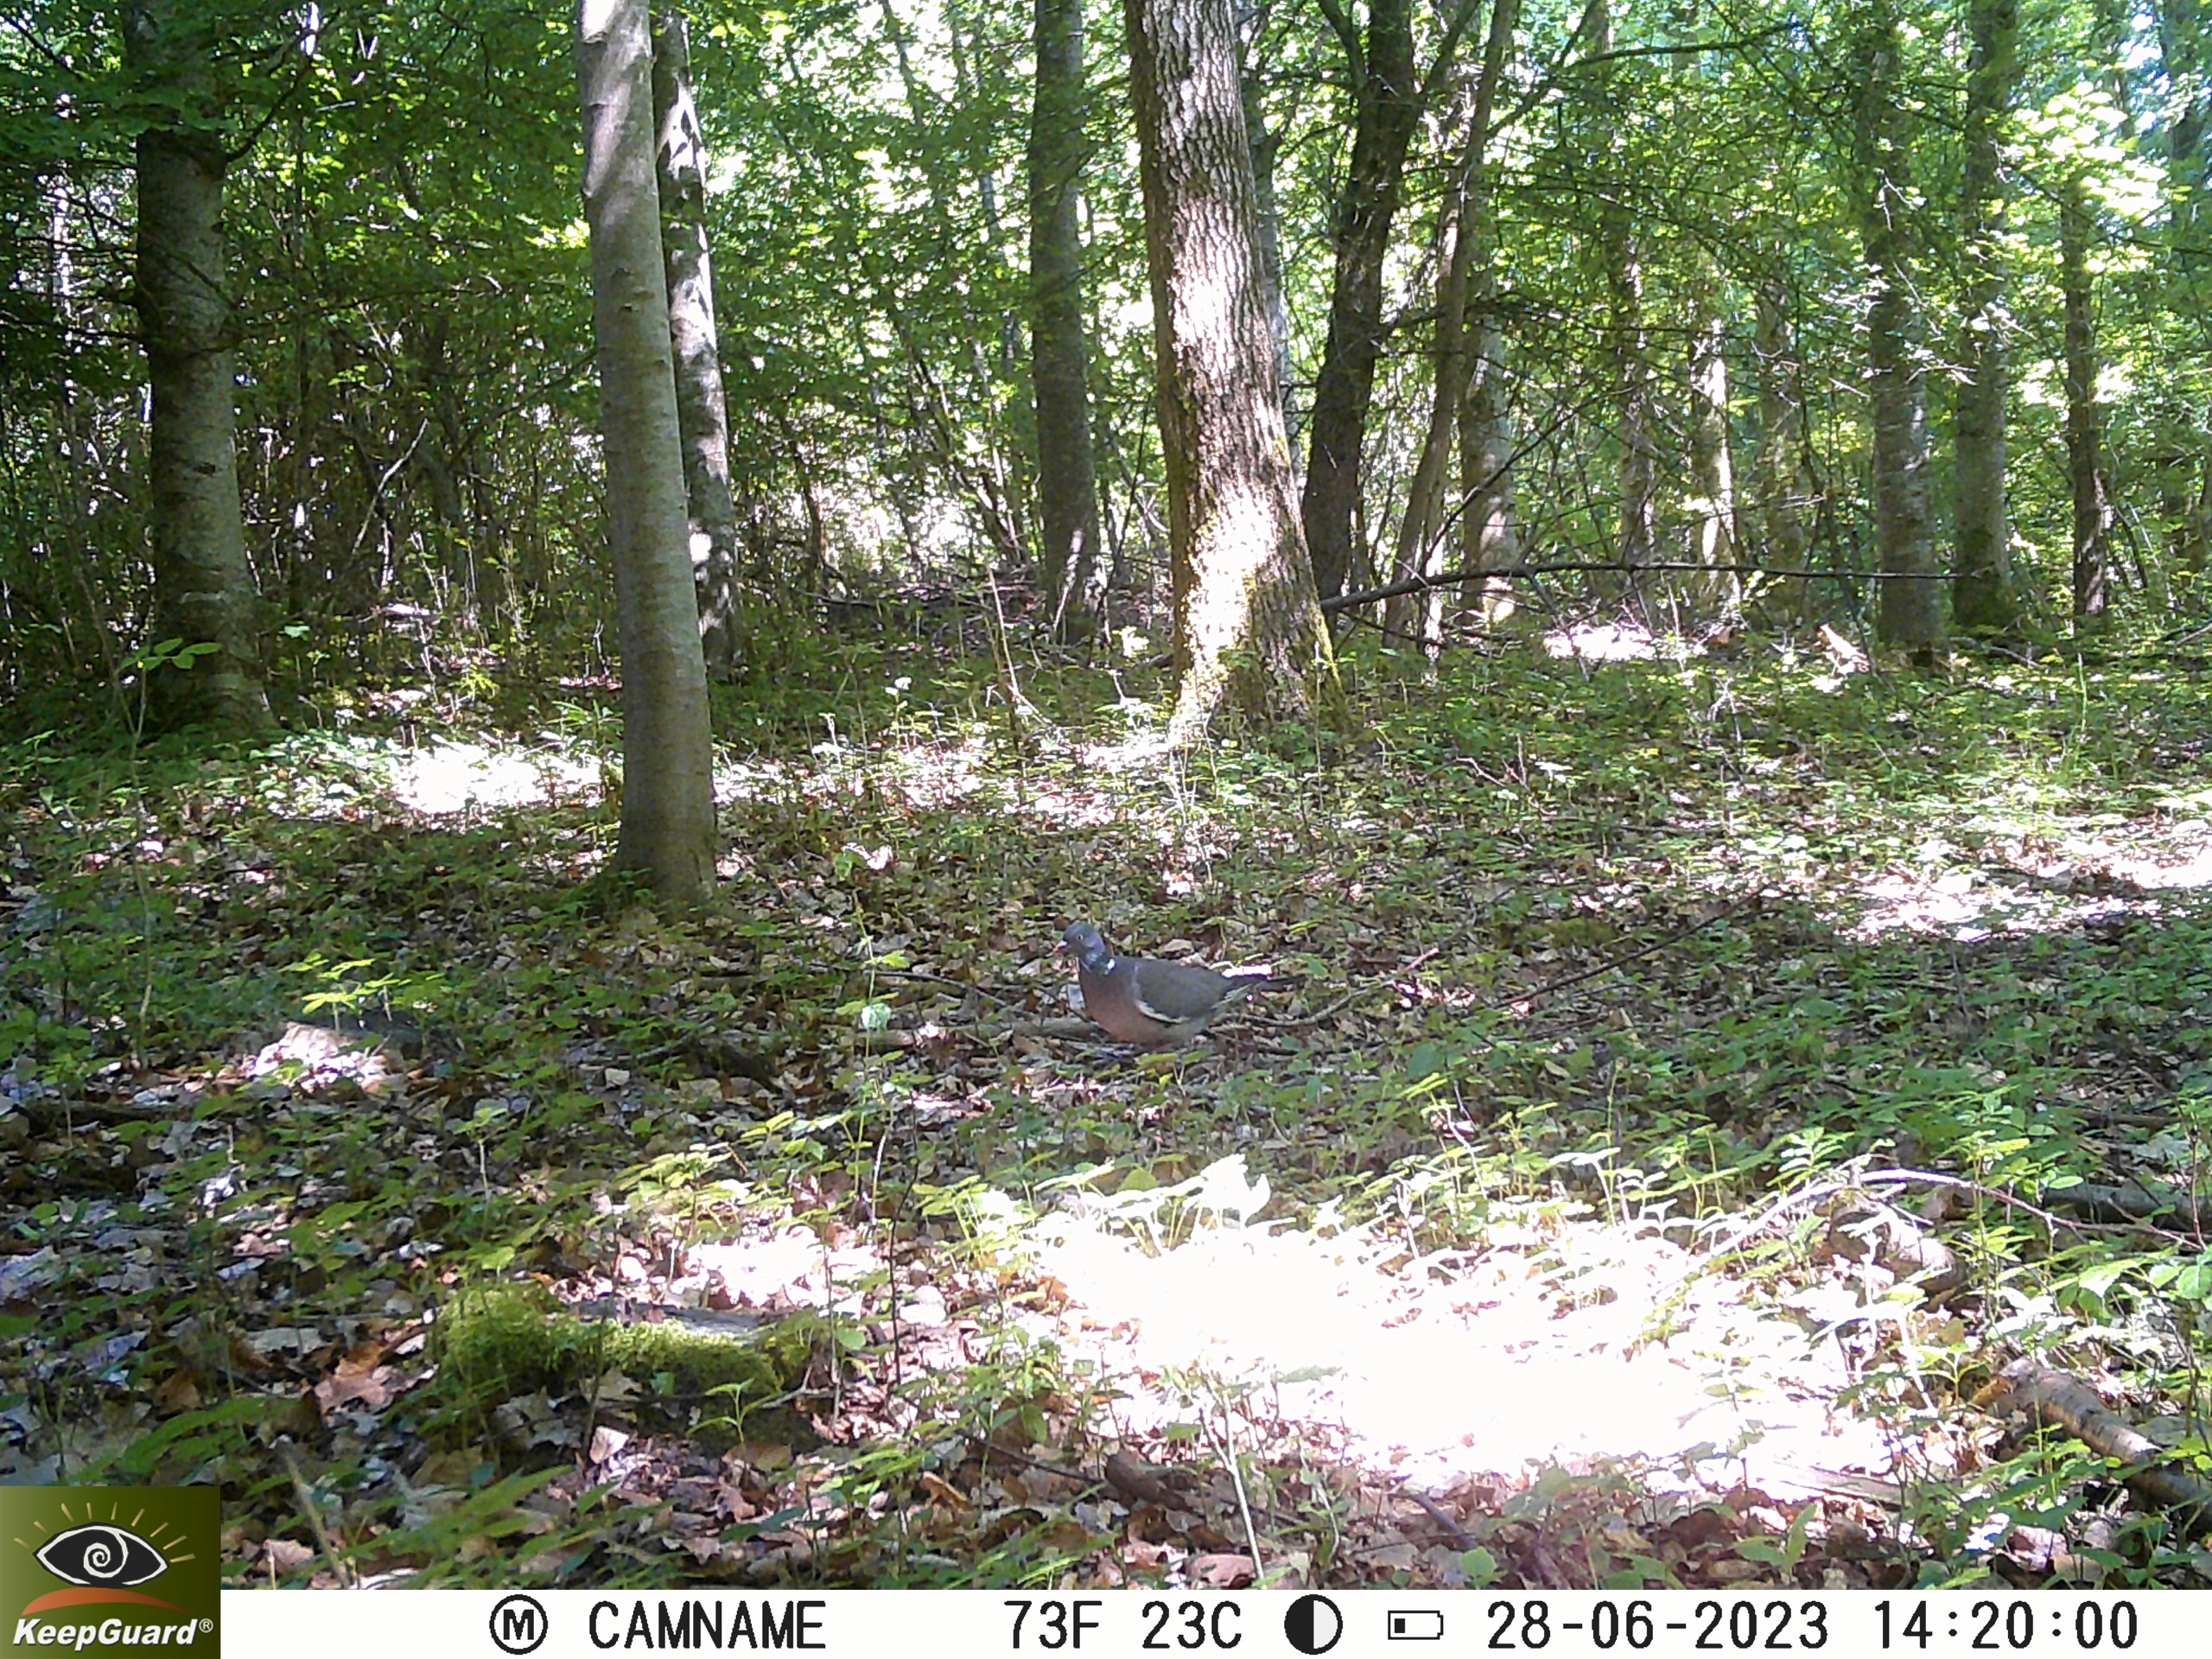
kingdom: Animalia
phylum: Chordata
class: Aves
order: Columbiformes
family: Columbidae
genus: Columba
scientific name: Columba palumbus
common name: Ringdue
